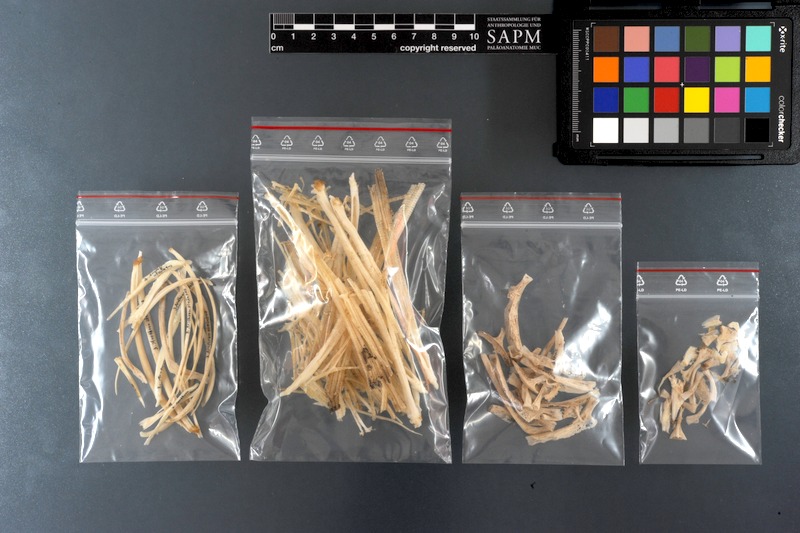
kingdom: Animalia
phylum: Chordata
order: Tetraodontiformes
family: Tetraodontidae
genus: Arothron
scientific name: Arothron stellatus
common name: Star blaasop
